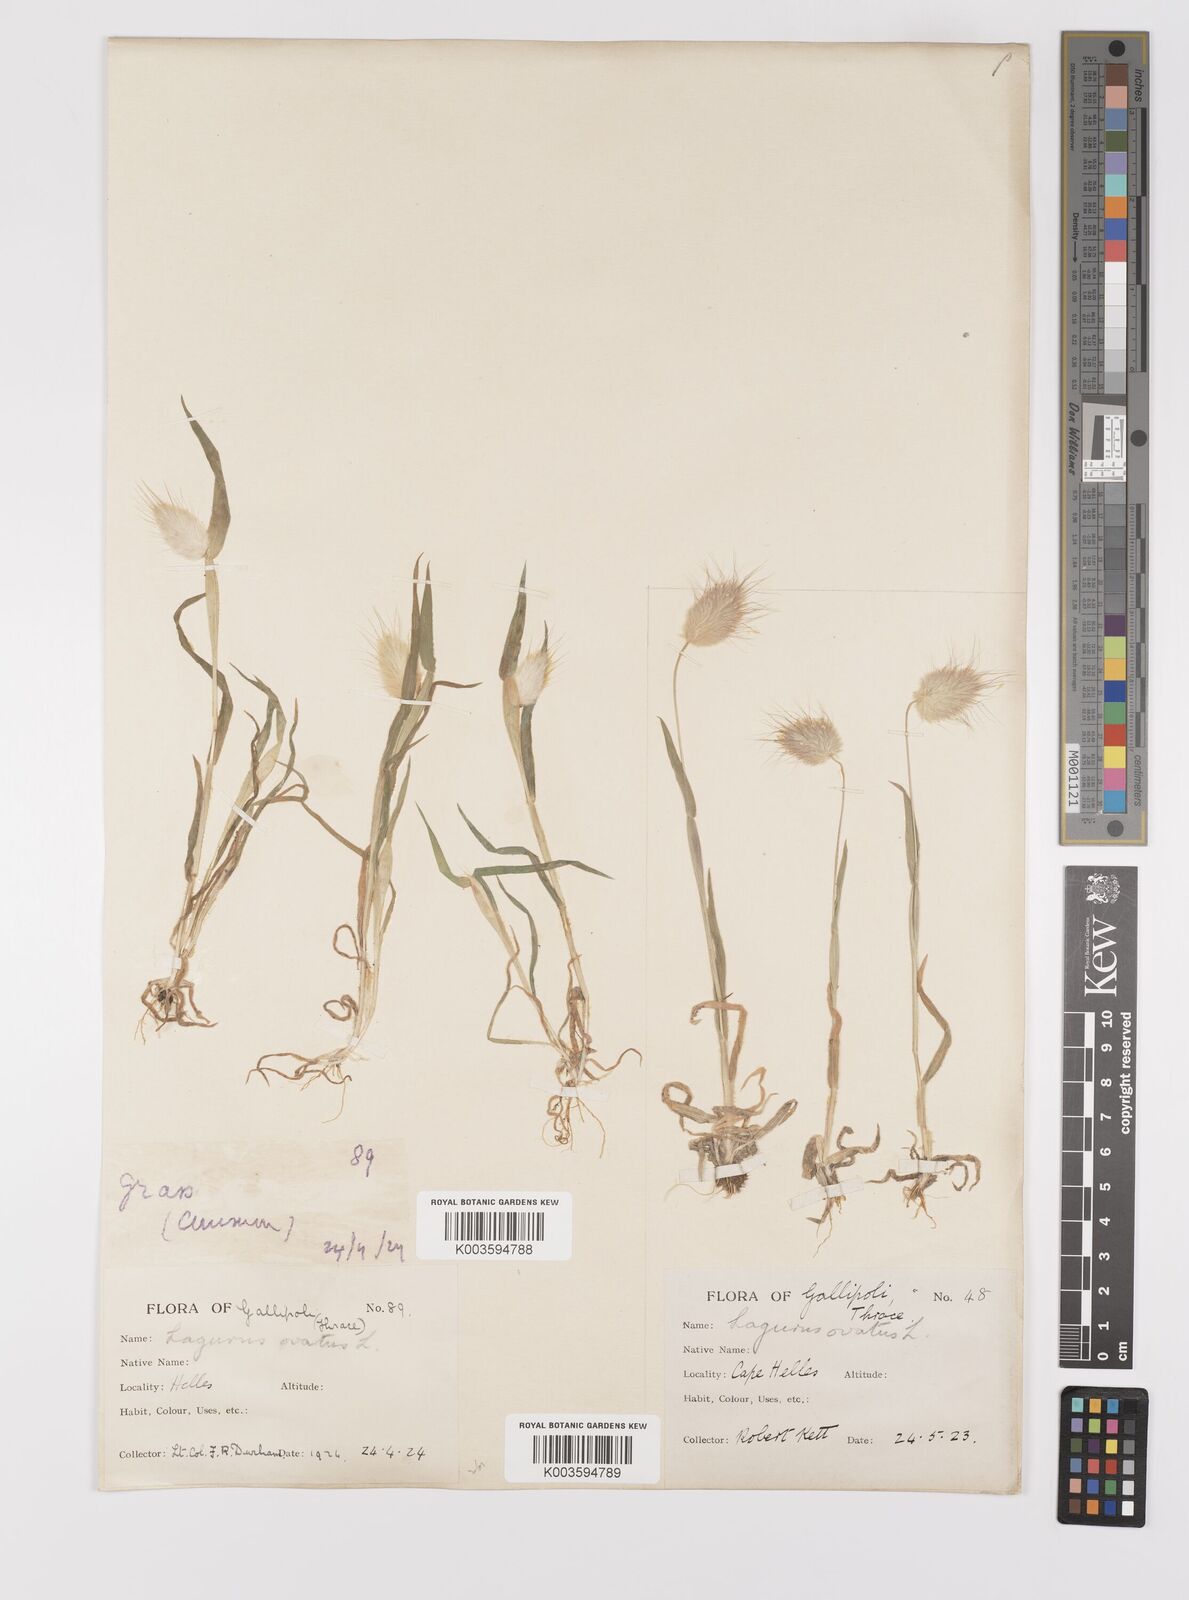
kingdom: Plantae
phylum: Tracheophyta
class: Liliopsida
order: Poales
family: Poaceae
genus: Lagurus
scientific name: Lagurus ovatus
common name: Hare's-tail
